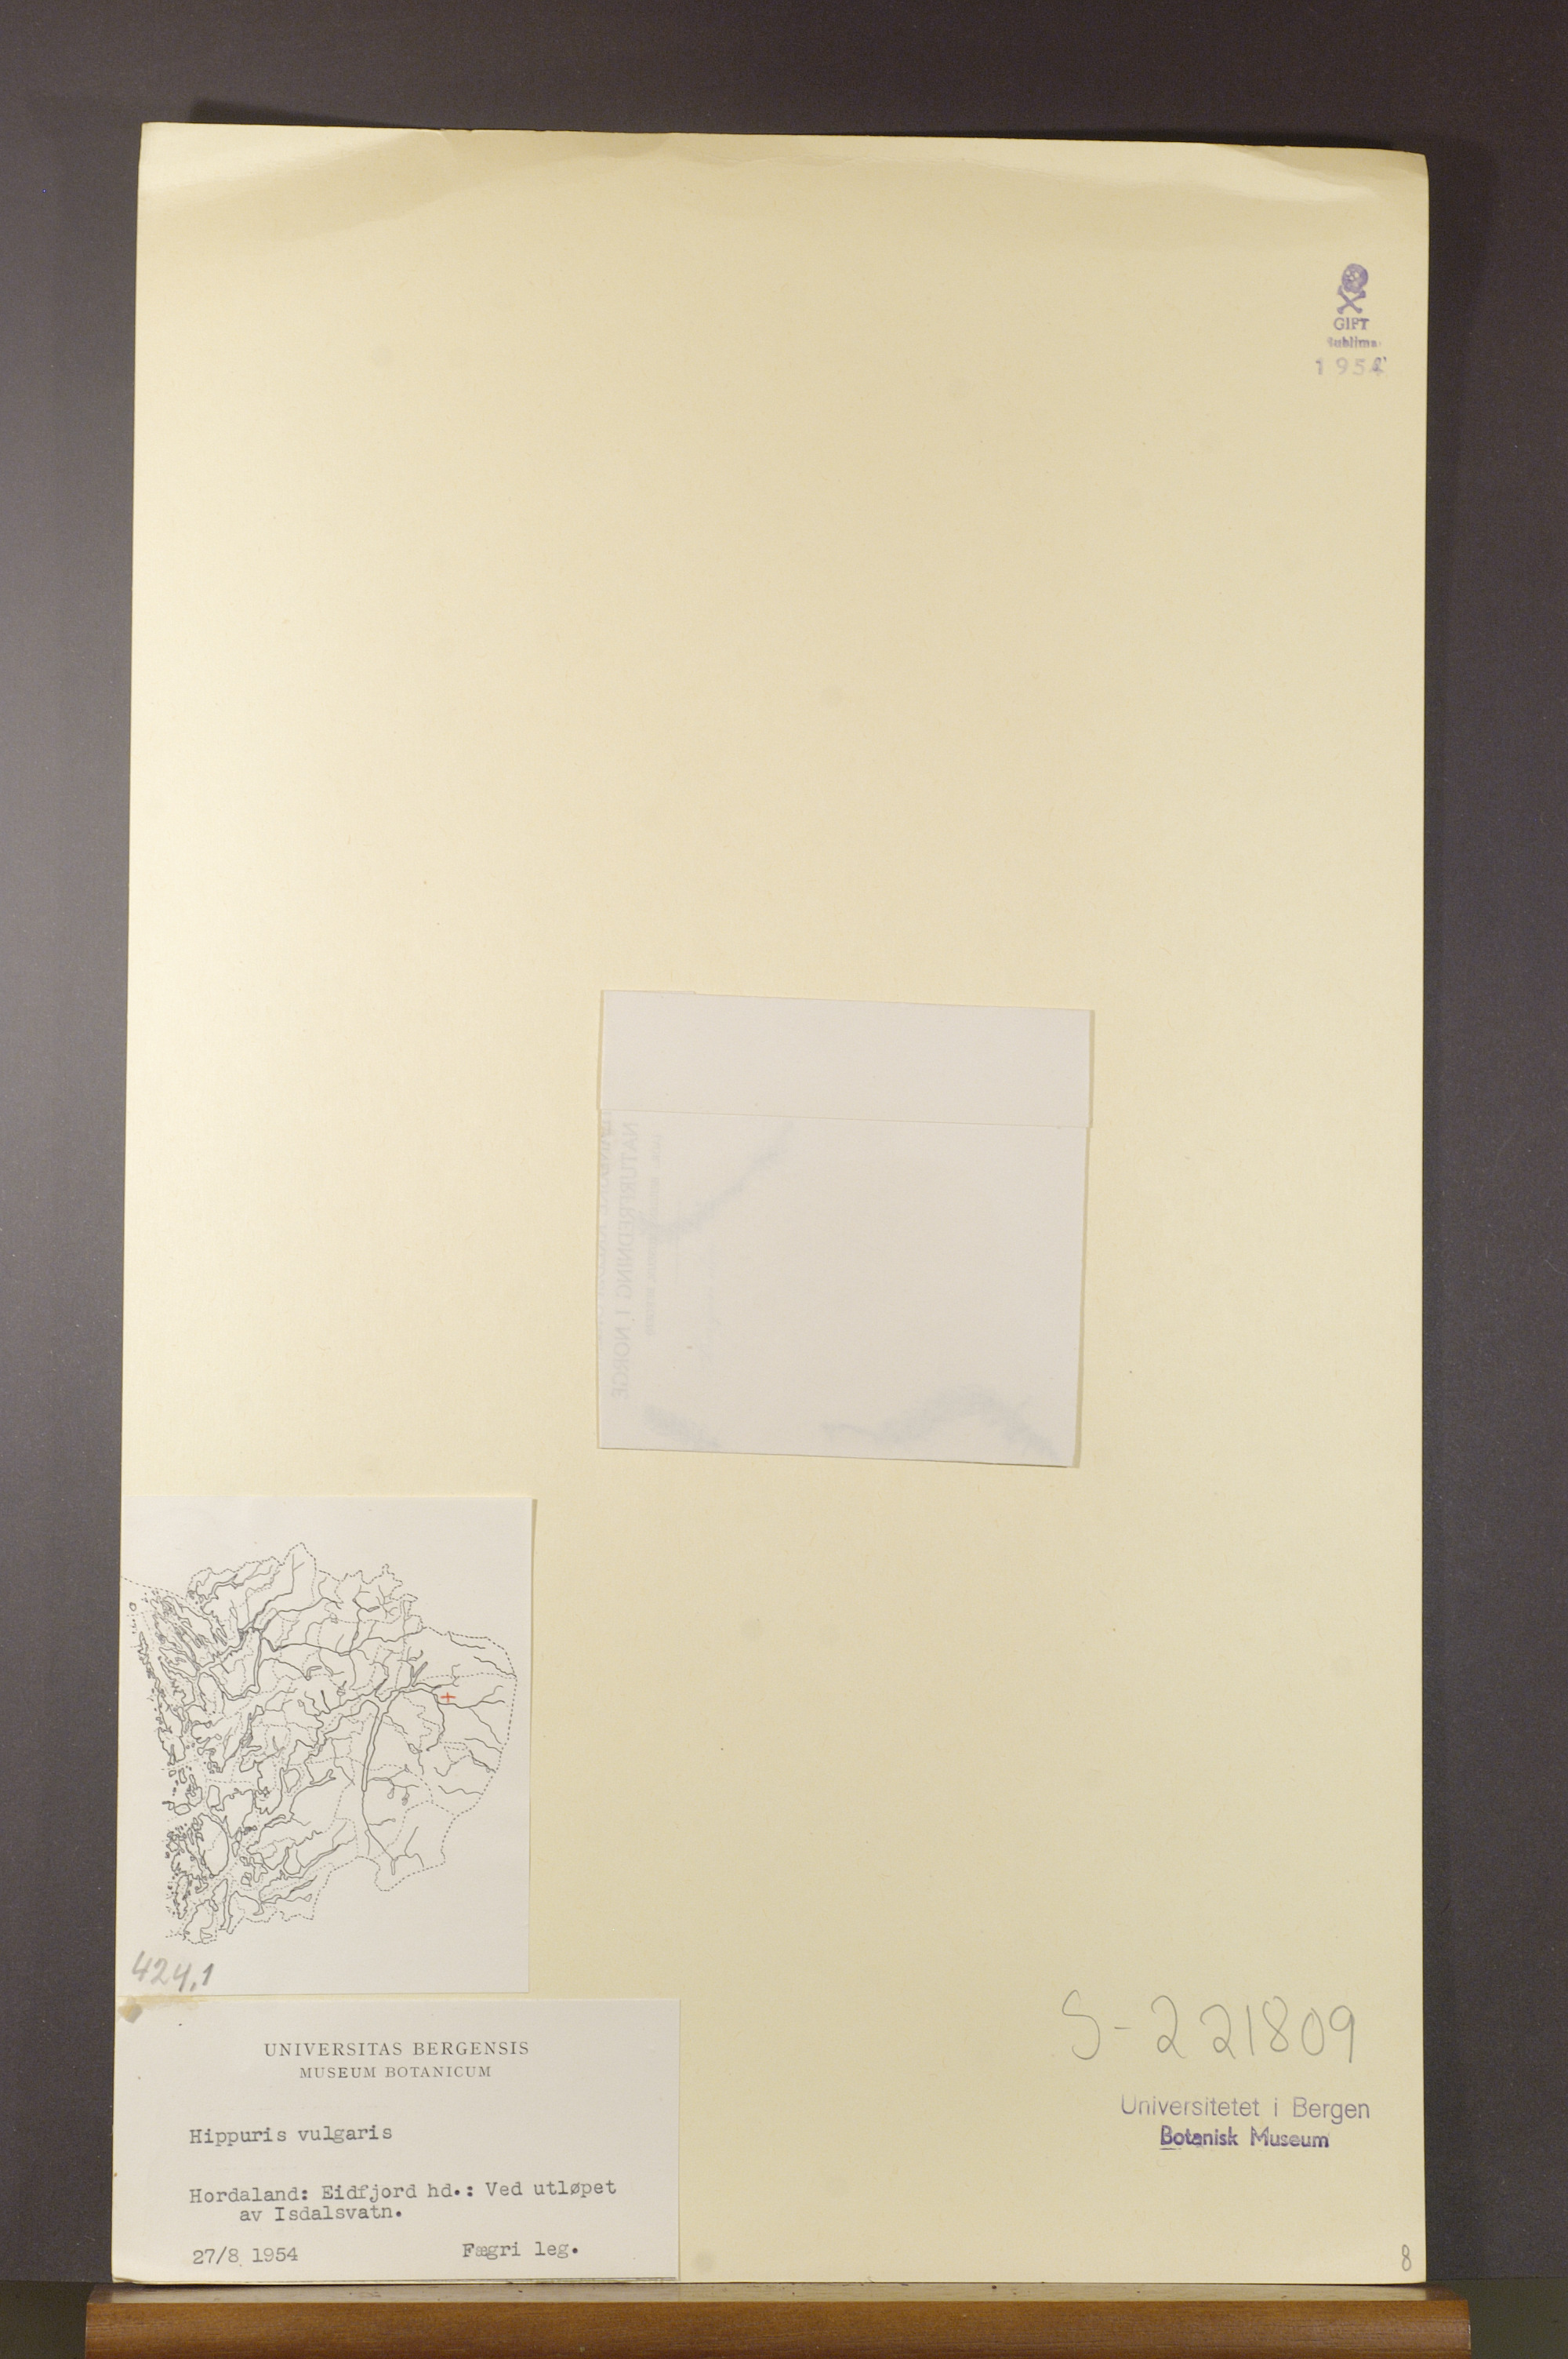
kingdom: Plantae
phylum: Tracheophyta
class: Magnoliopsida
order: Lamiales
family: Plantaginaceae
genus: Hippuris
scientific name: Hippuris vulgaris
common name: Mare's-tail
